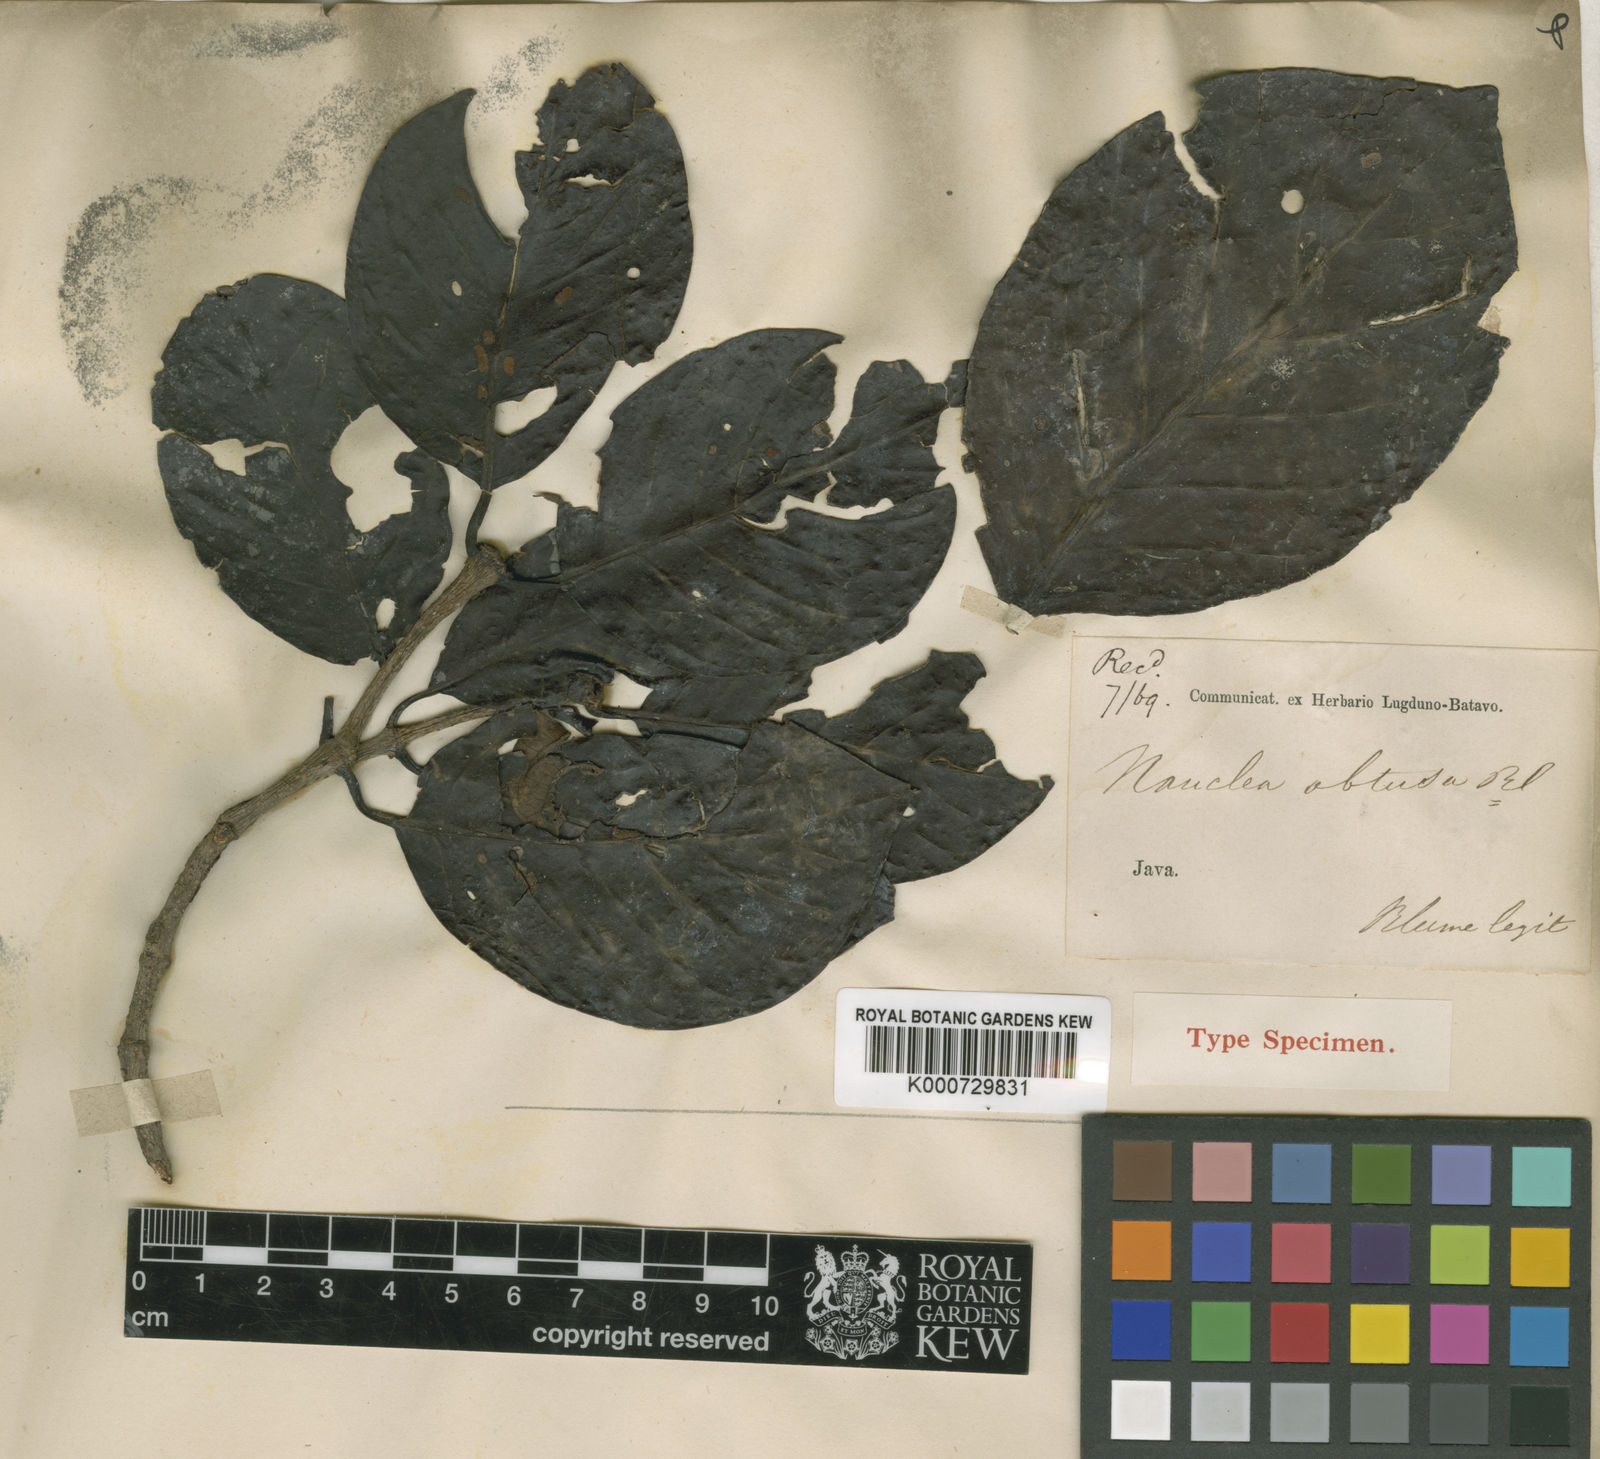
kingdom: Plantae
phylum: Tracheophyta
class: Magnoliopsida
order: Gentianales
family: Rubiaceae
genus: Neonauclea
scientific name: Neonauclea excelsa
